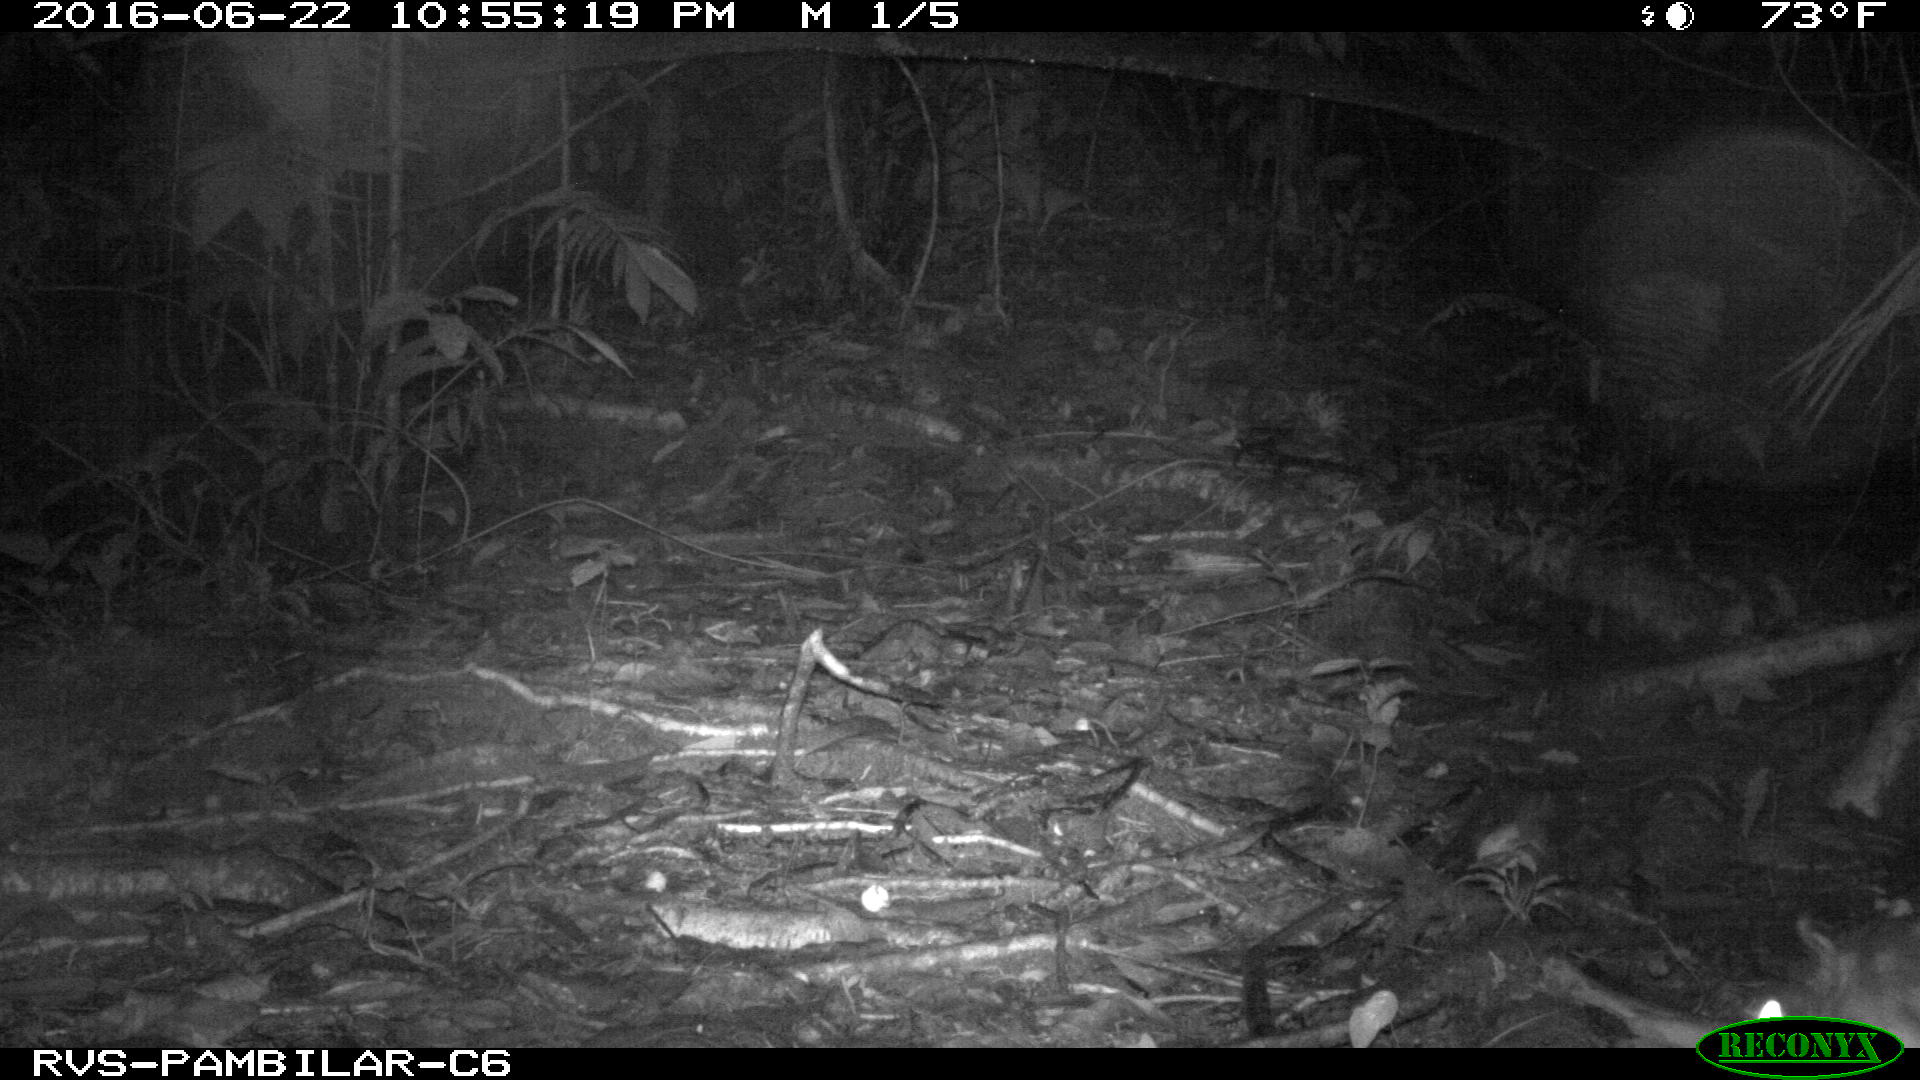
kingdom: Animalia
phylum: Chordata
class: Mammalia
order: Rodentia
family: Cuniculidae
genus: Cuniculus
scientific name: Cuniculus paca
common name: Lowland paca
